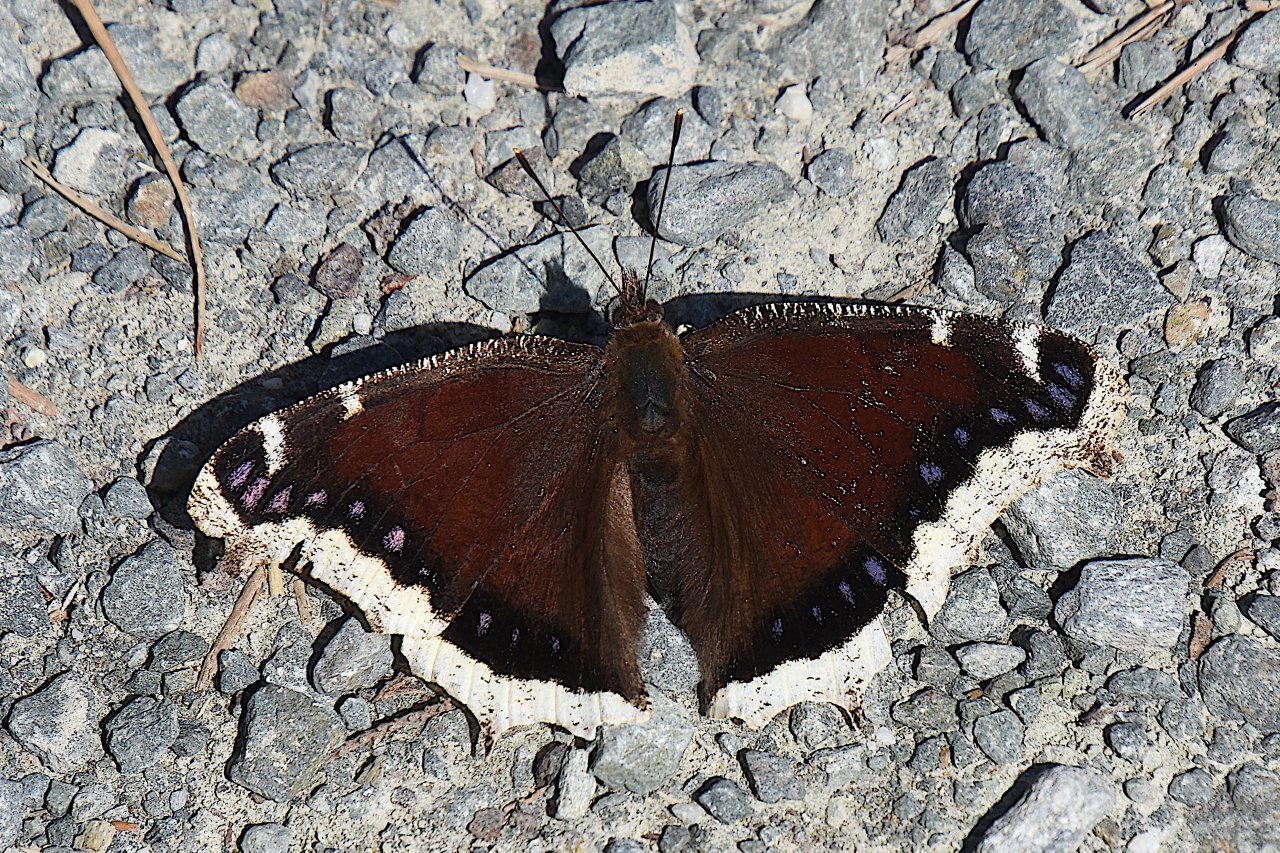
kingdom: Animalia
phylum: Arthropoda
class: Insecta
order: Lepidoptera
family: Nymphalidae
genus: Nymphalis
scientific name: Nymphalis antiopa
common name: Mourning Cloak
